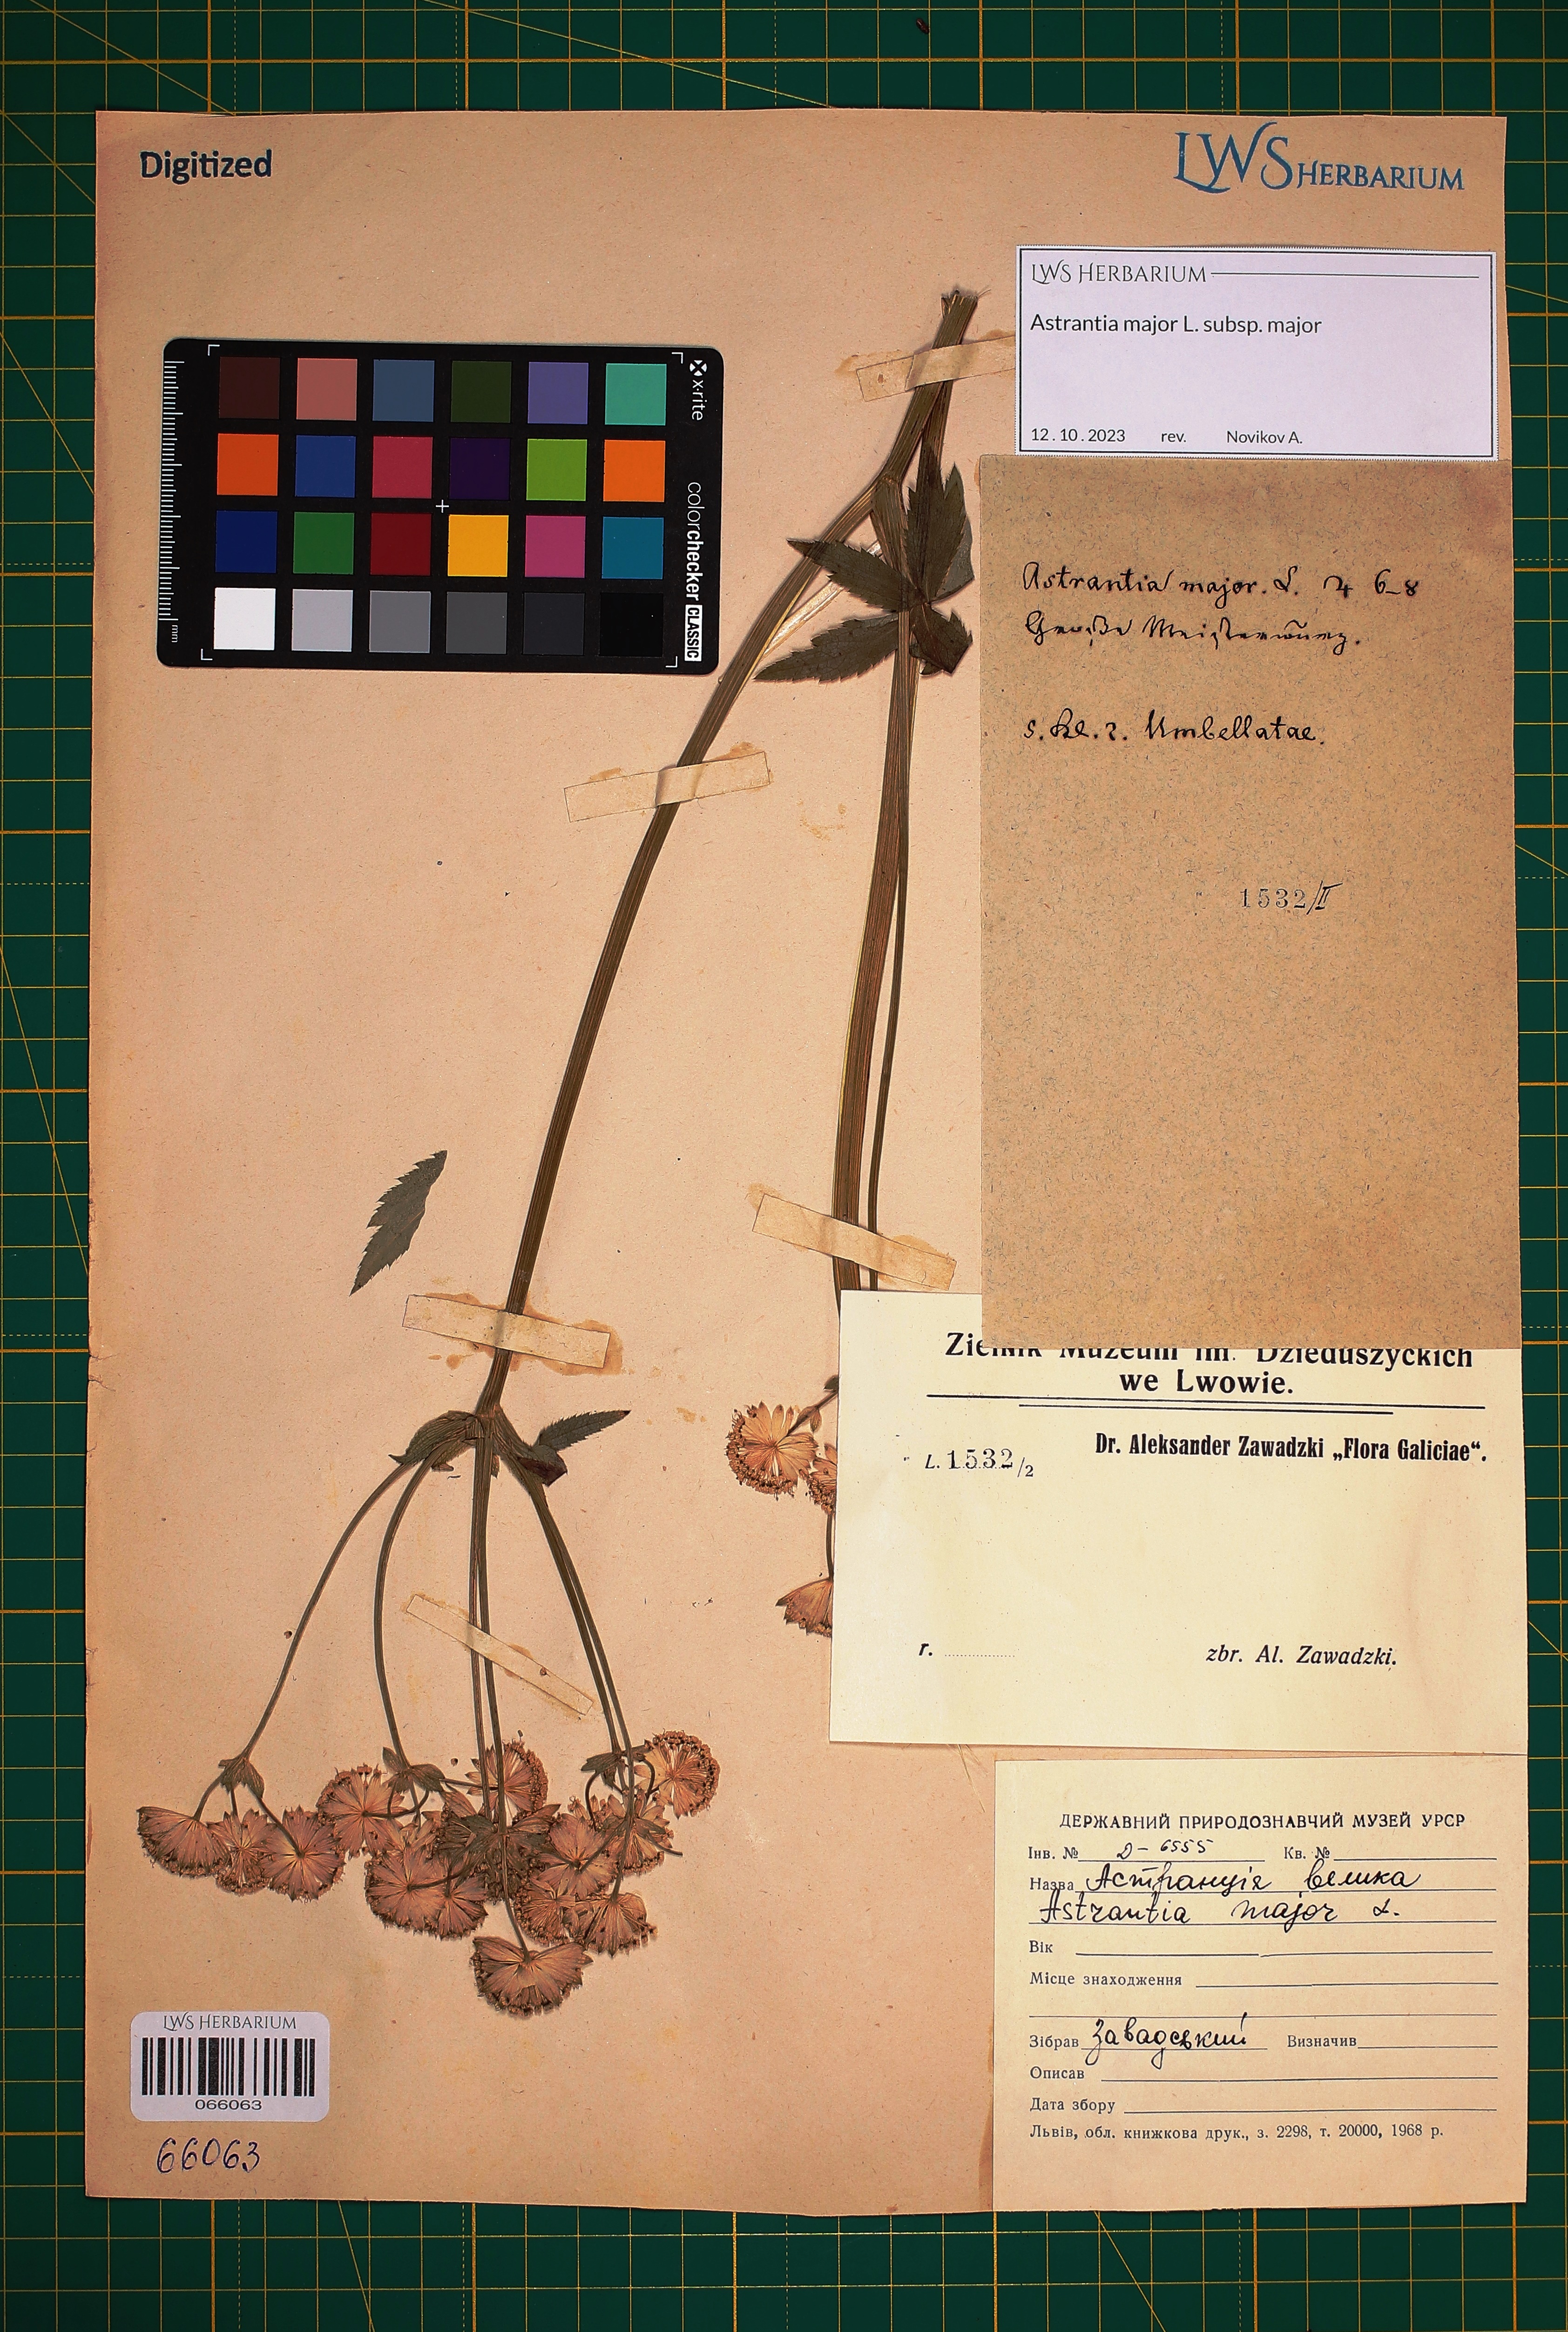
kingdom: Plantae
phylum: Tracheophyta
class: Magnoliopsida
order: Apiales
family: Apiaceae
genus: Astrantia
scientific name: Astrantia major
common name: Greater masterwort
